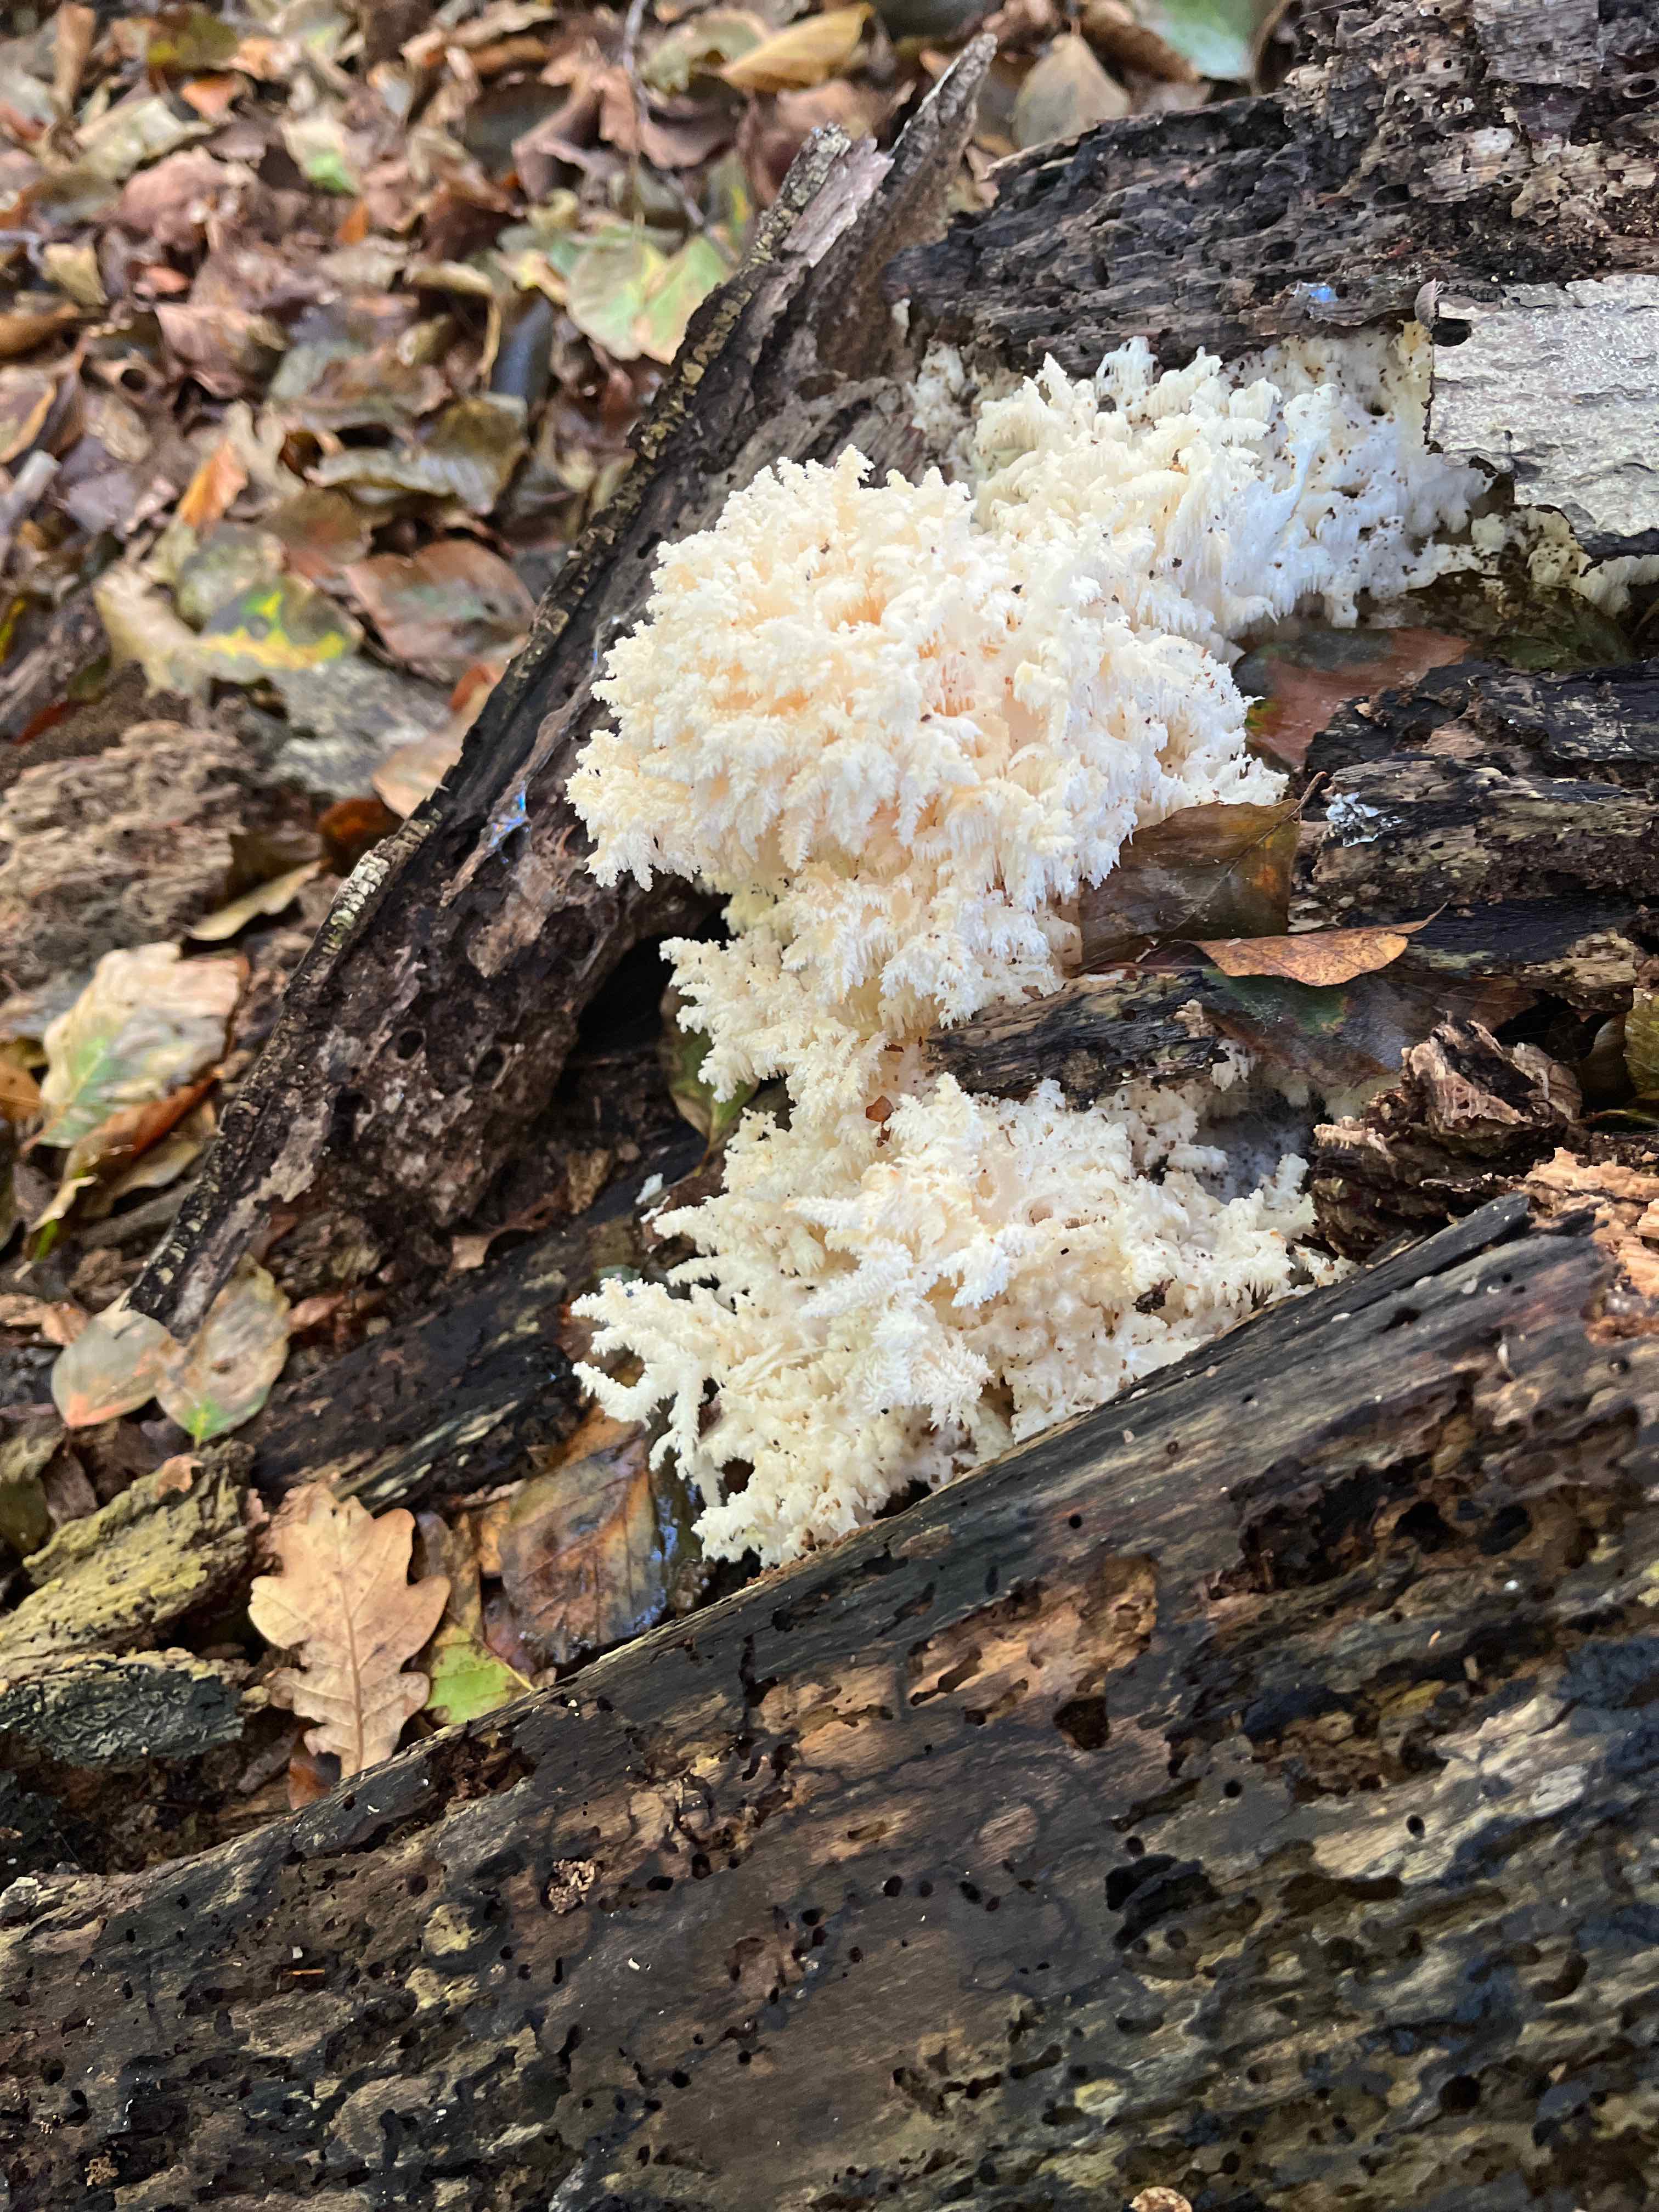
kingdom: Fungi
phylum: Basidiomycota
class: Agaricomycetes
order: Russulales
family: Hericiaceae
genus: Hericium
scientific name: Hericium coralloides
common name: koralpigsvamp
